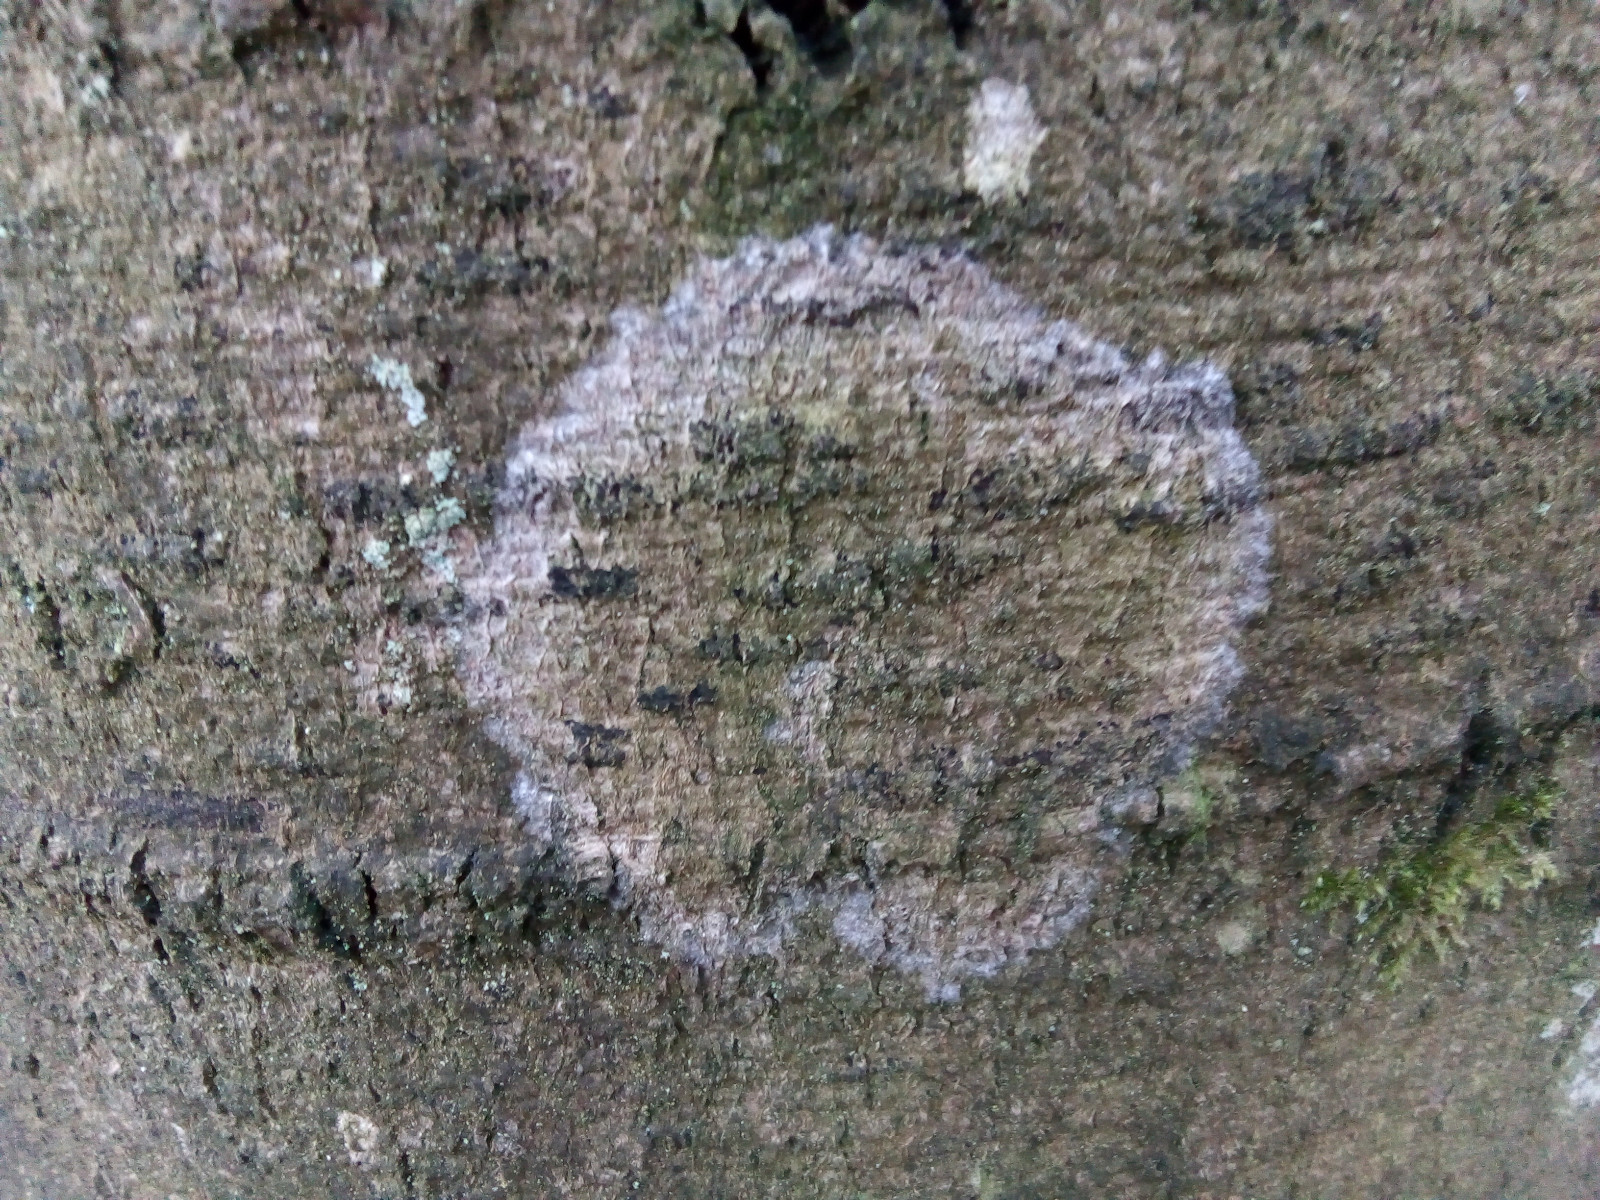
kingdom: Fungi
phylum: Basidiomycota
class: Agaricomycetes
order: Atheliales
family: Atheliaceae
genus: Athelia
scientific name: Athelia arachnoidea
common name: randet barkhinde
